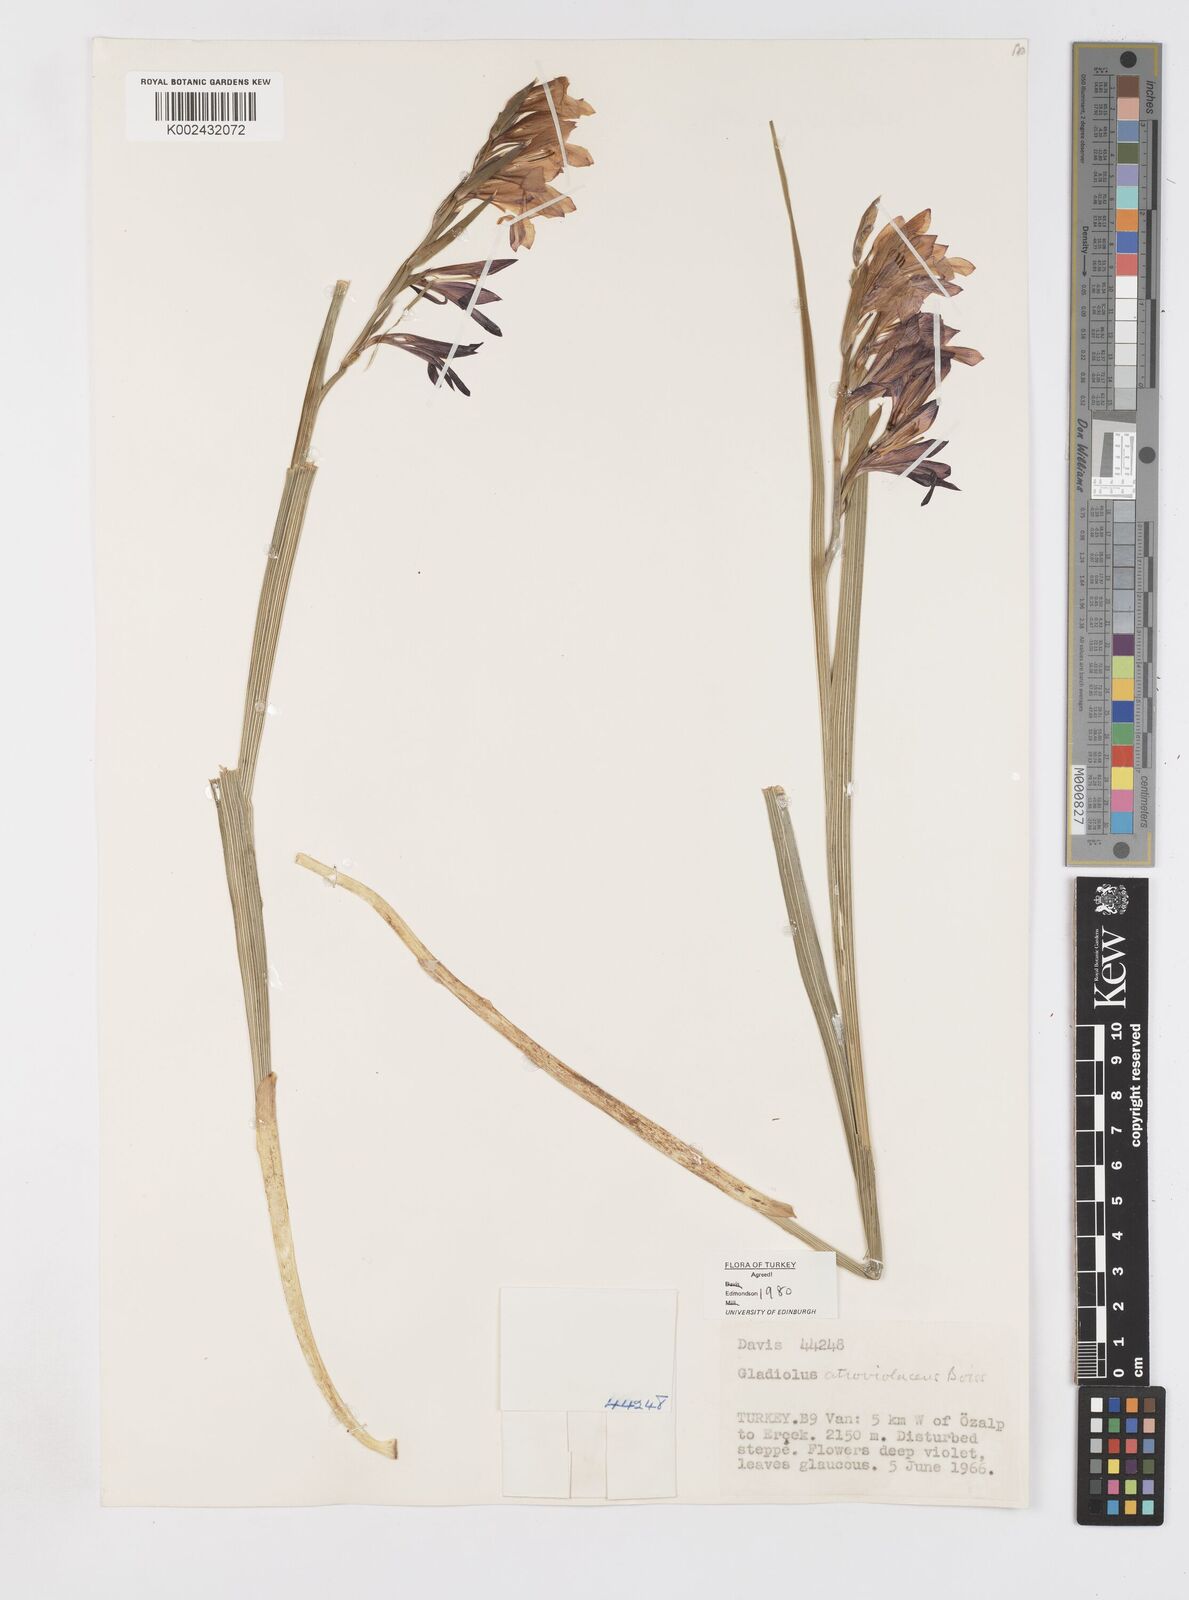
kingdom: Plantae
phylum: Tracheophyta
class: Liliopsida
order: Asparagales
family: Iridaceae
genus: Gladiolus
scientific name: Gladiolus atroviolaceus
